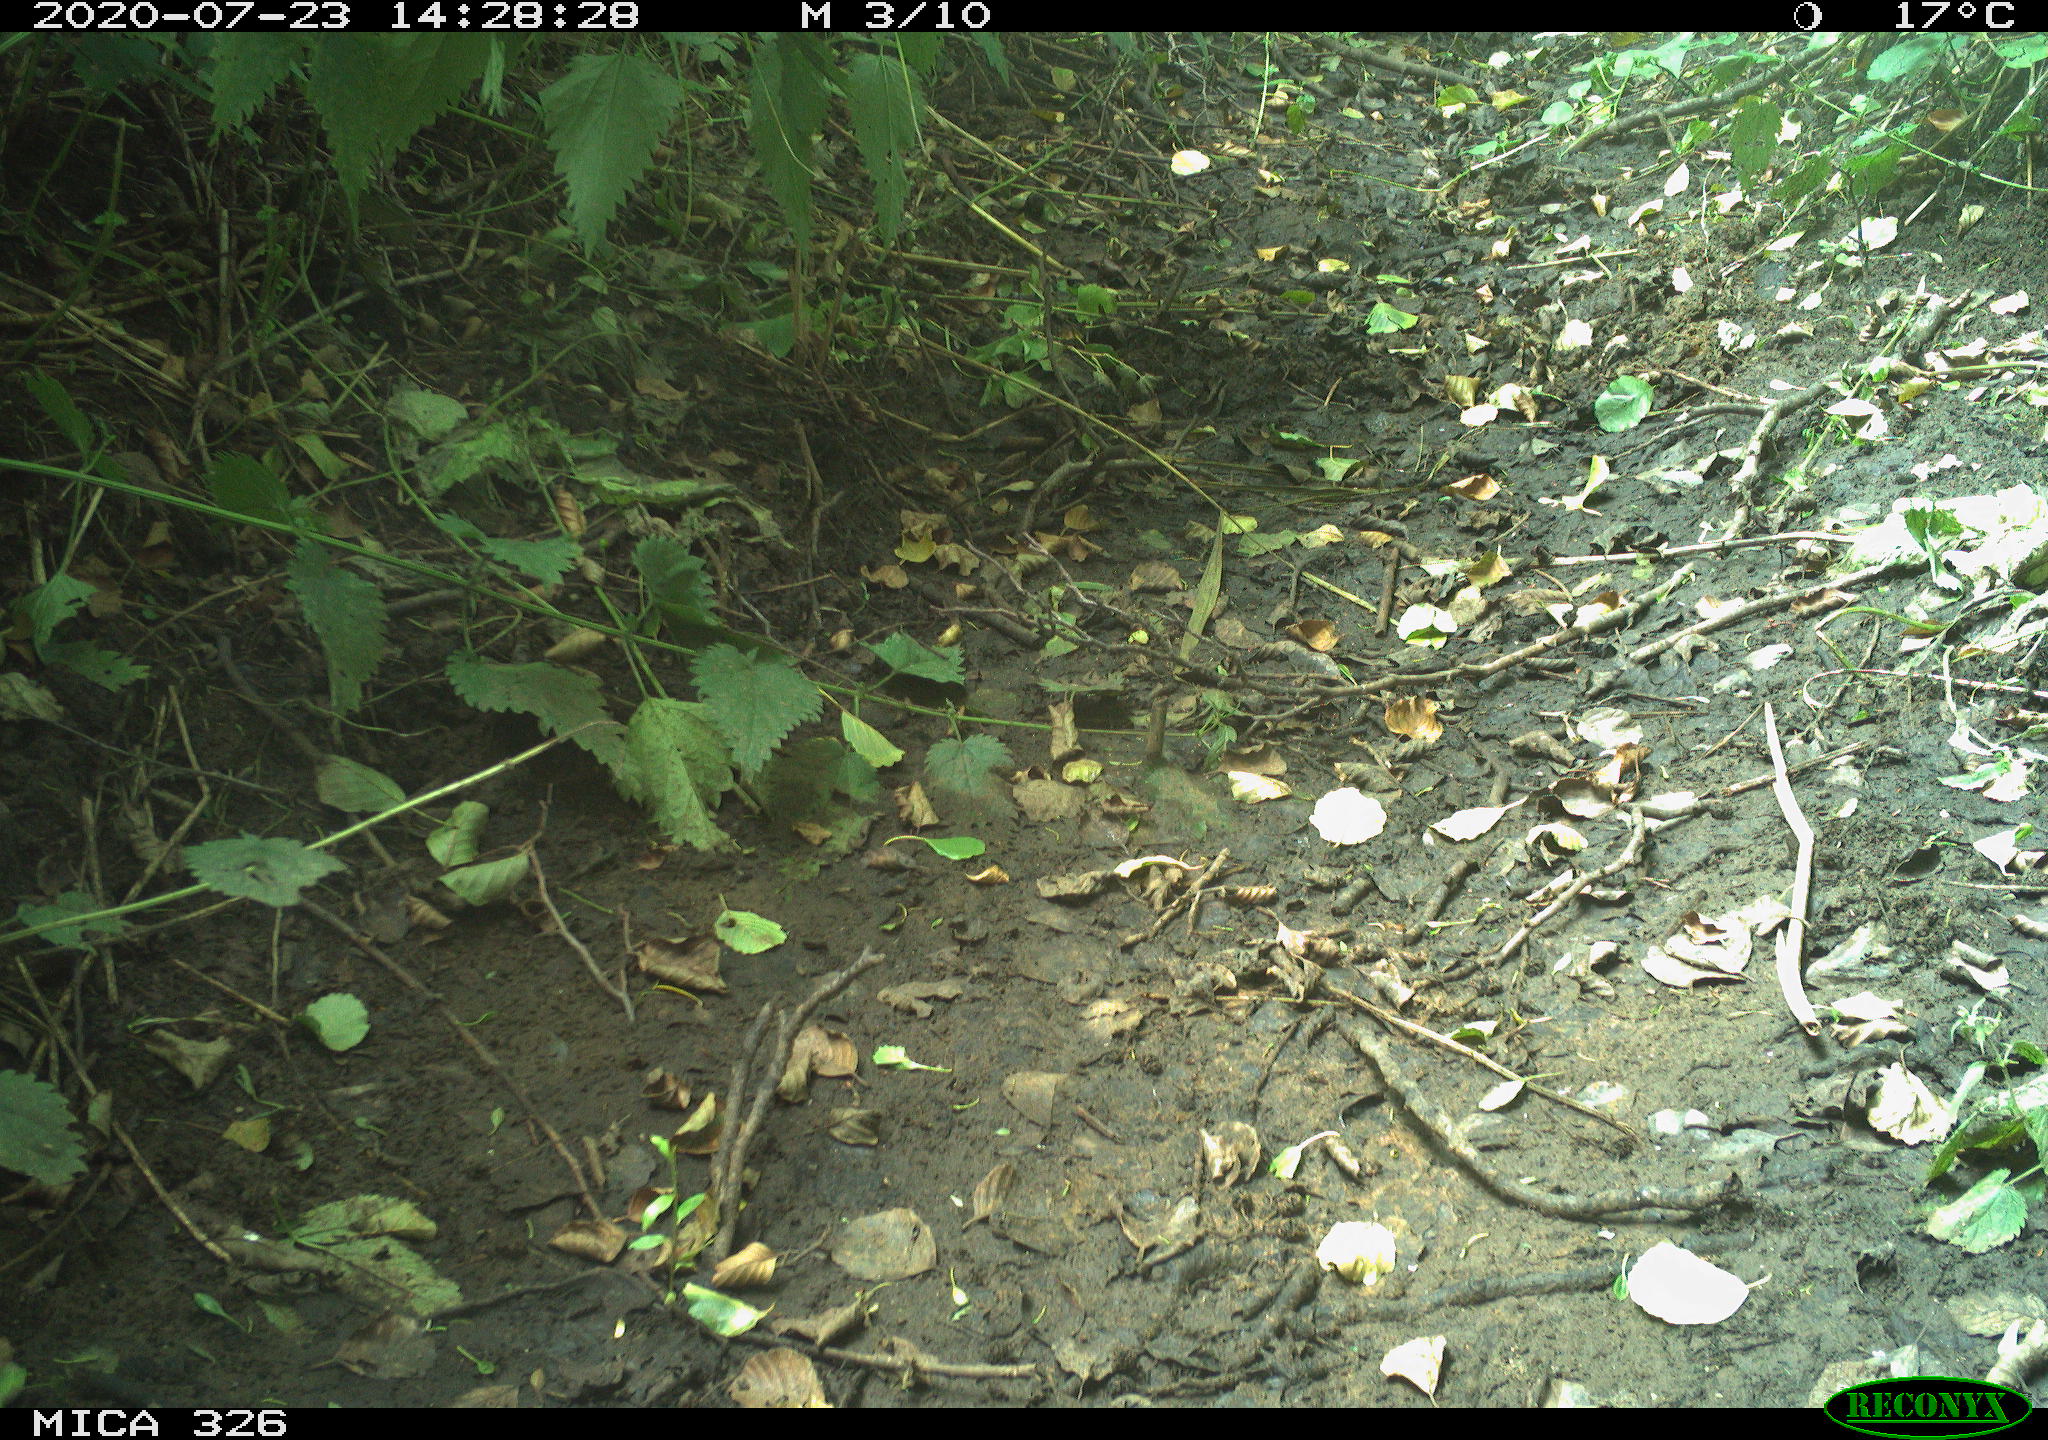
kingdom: Animalia
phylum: Chordata
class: Aves
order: Passeriformes
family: Muscicapidae
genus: Erithacus
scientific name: Erithacus rubecula
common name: European robin
